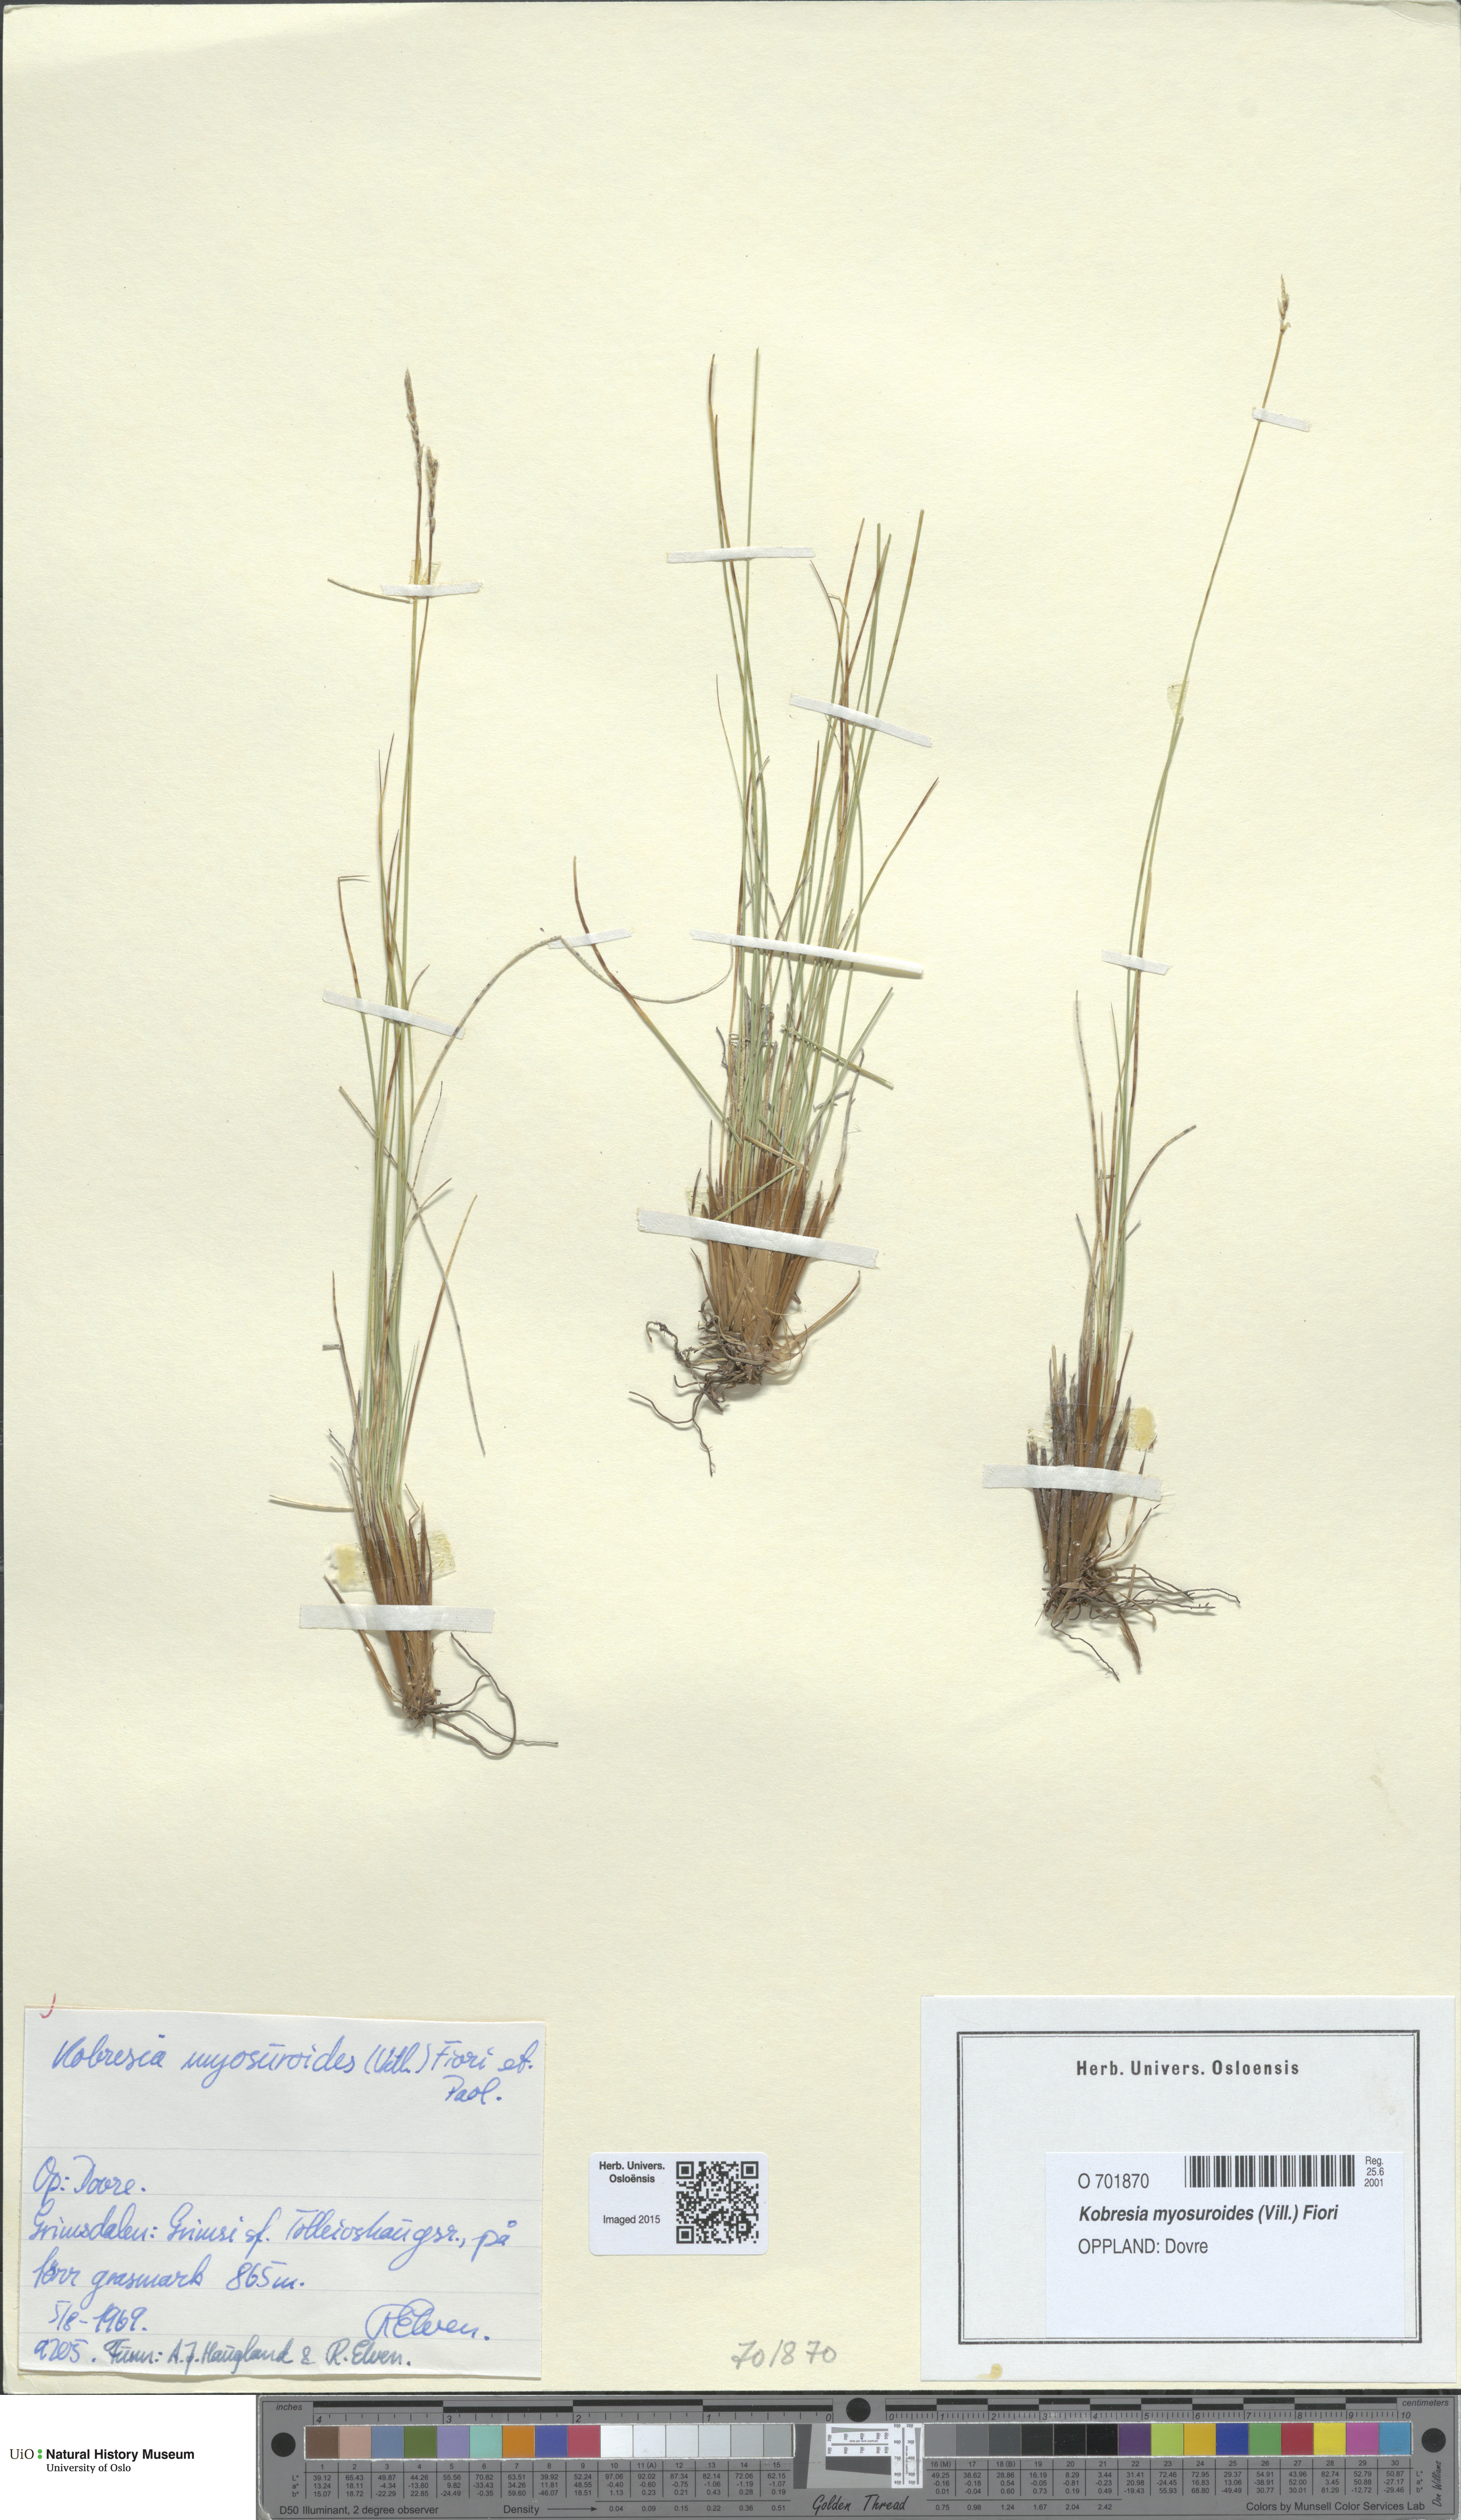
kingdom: Plantae
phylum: Tracheophyta
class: Liliopsida
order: Poales
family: Cyperaceae
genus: Carex
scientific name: Carex myosuroides
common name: Bellard's bog sedge
